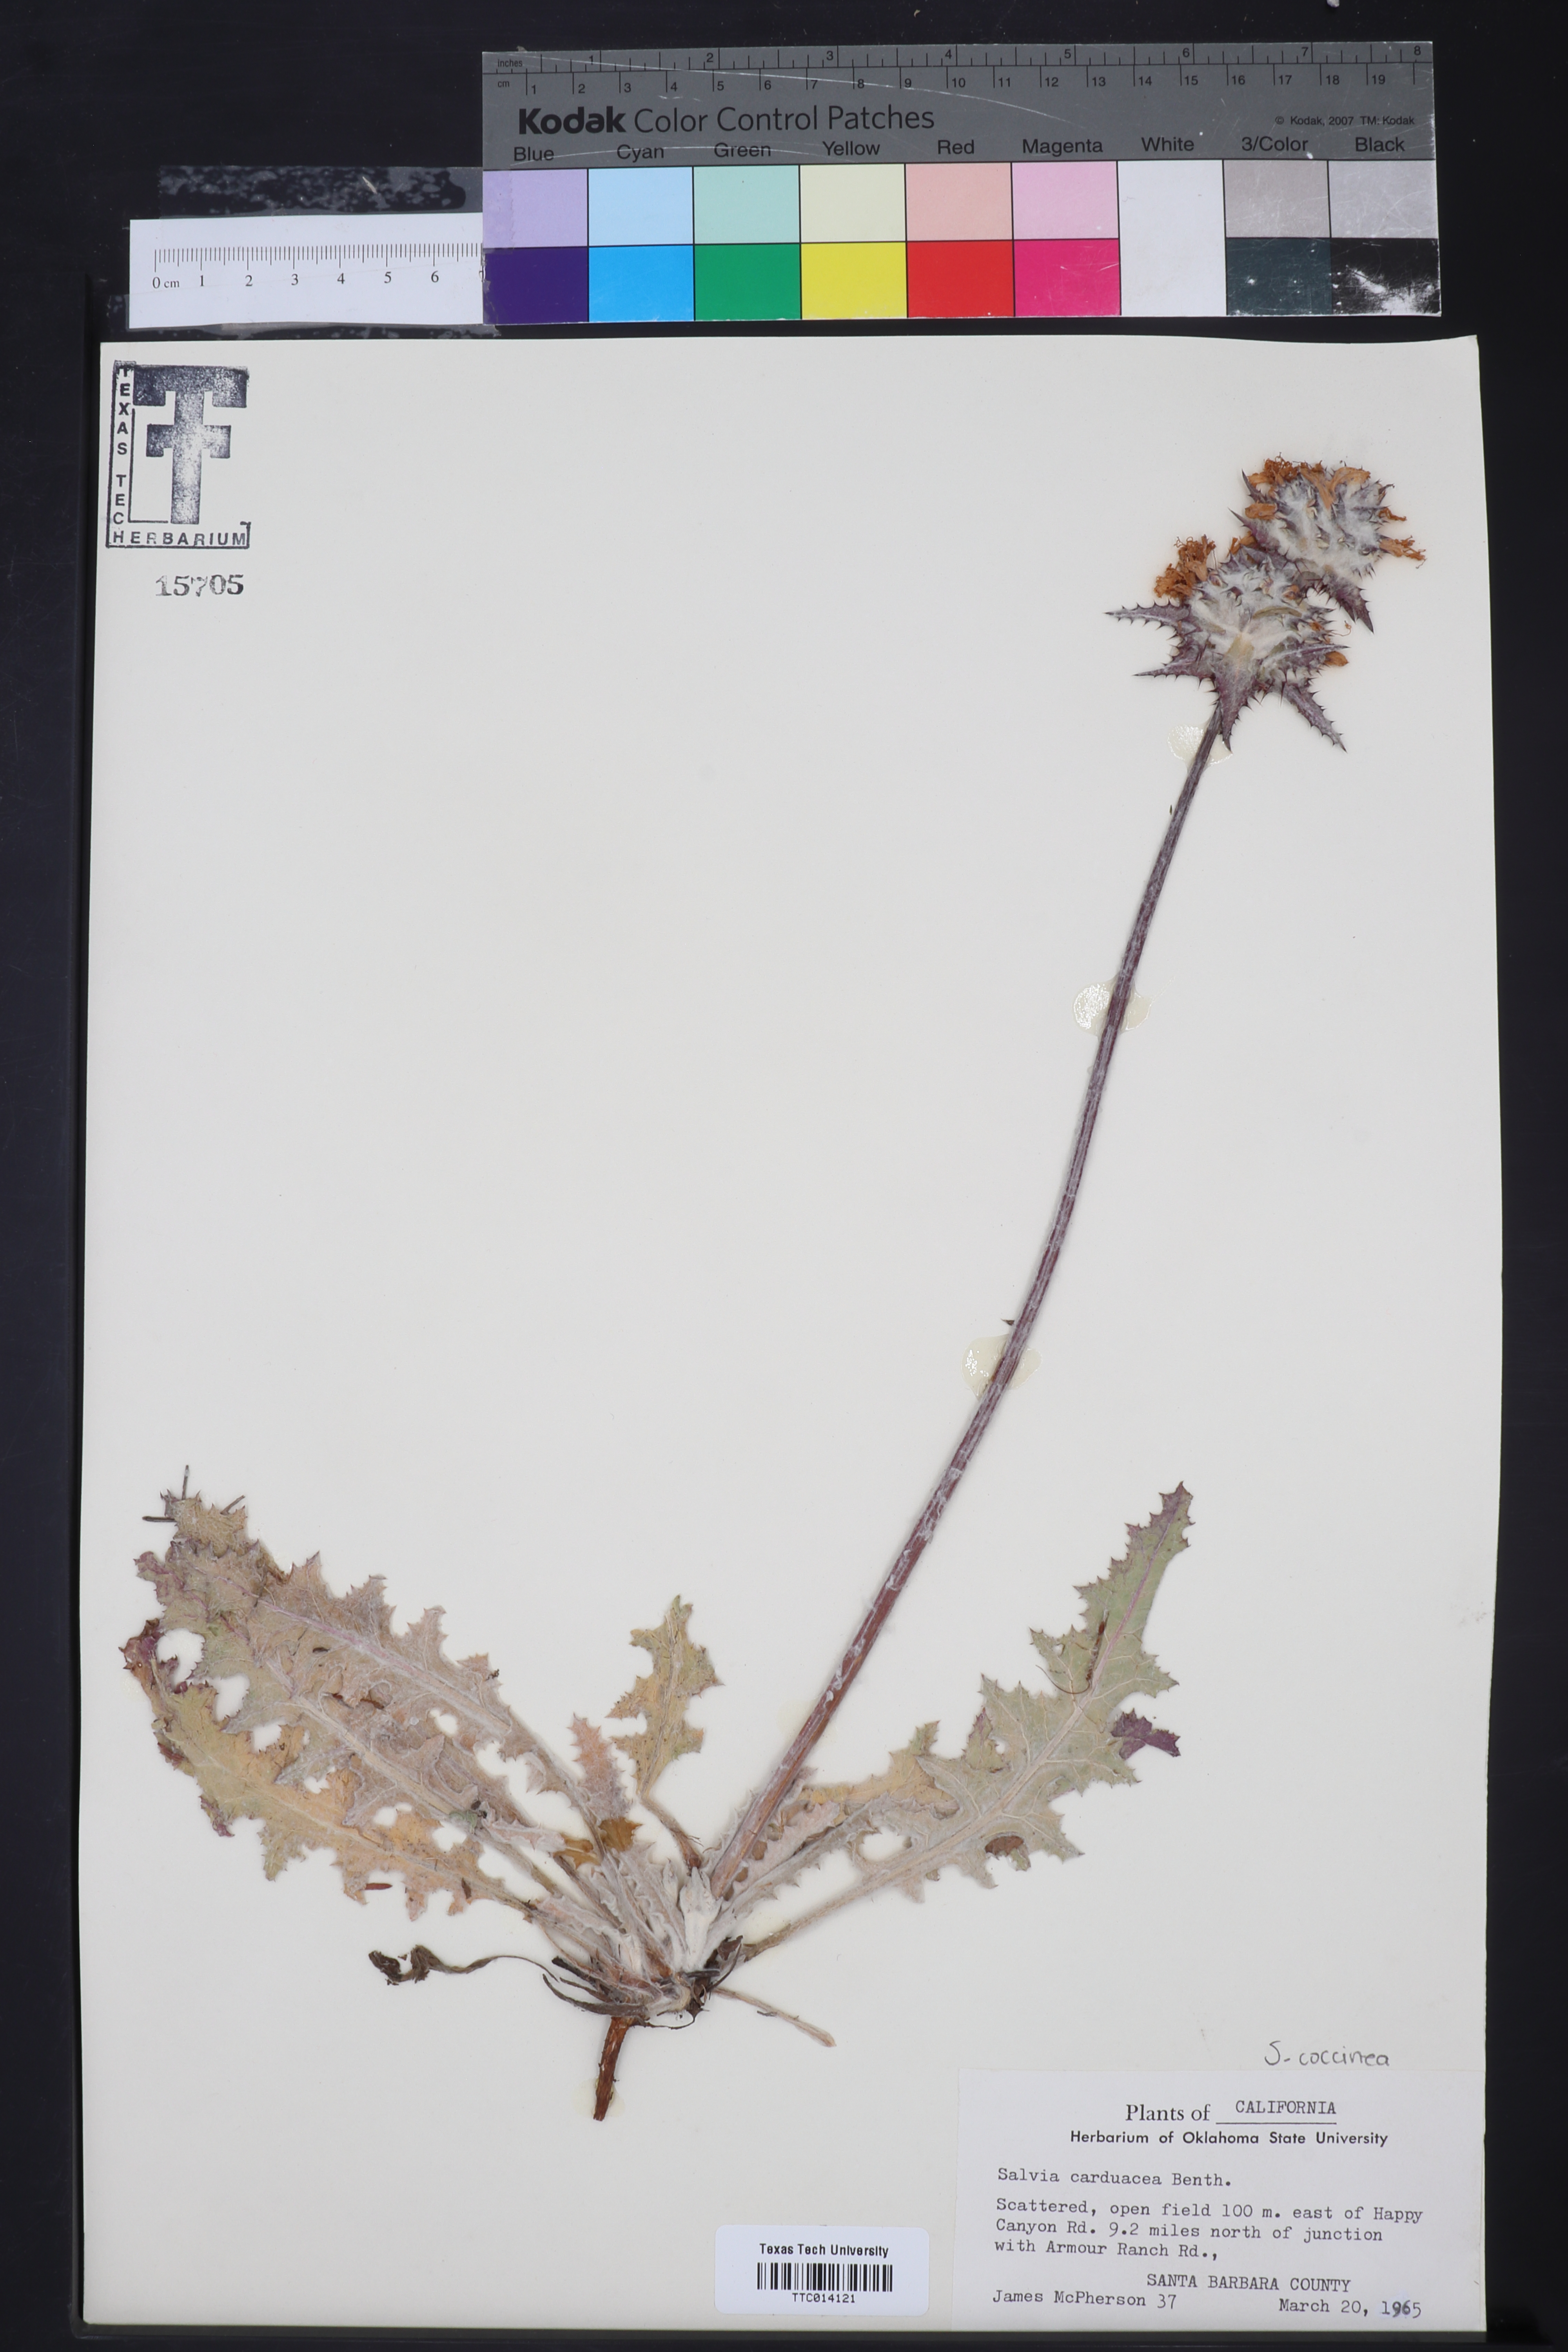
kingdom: Plantae
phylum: Tracheophyta
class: Magnoliopsida
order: Lamiales
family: Lamiaceae
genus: Salvia
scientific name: Salvia carduacea
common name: Thistle sage
